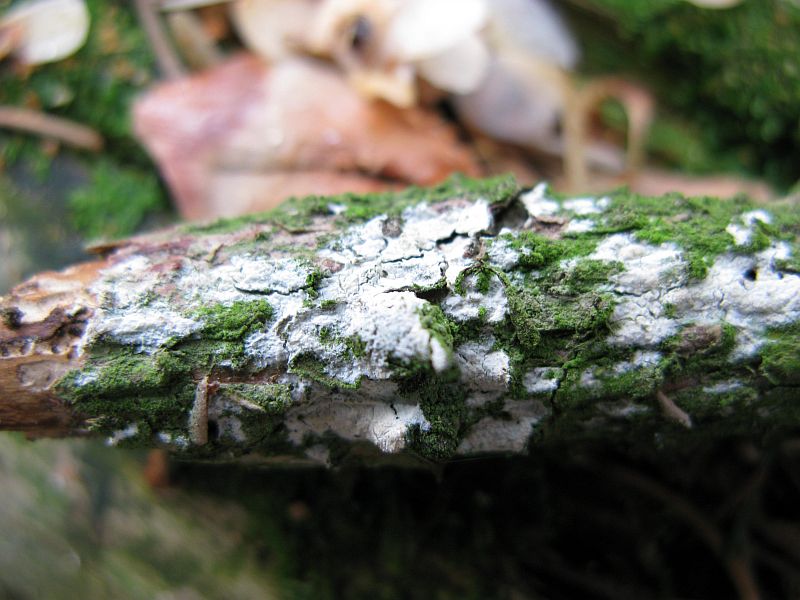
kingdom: Fungi
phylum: Basidiomycota
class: Agaricomycetes
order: Corticiales
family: Corticiaceae
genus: Lyomyces
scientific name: Lyomyces crustosus
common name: vortet hyldehinde
